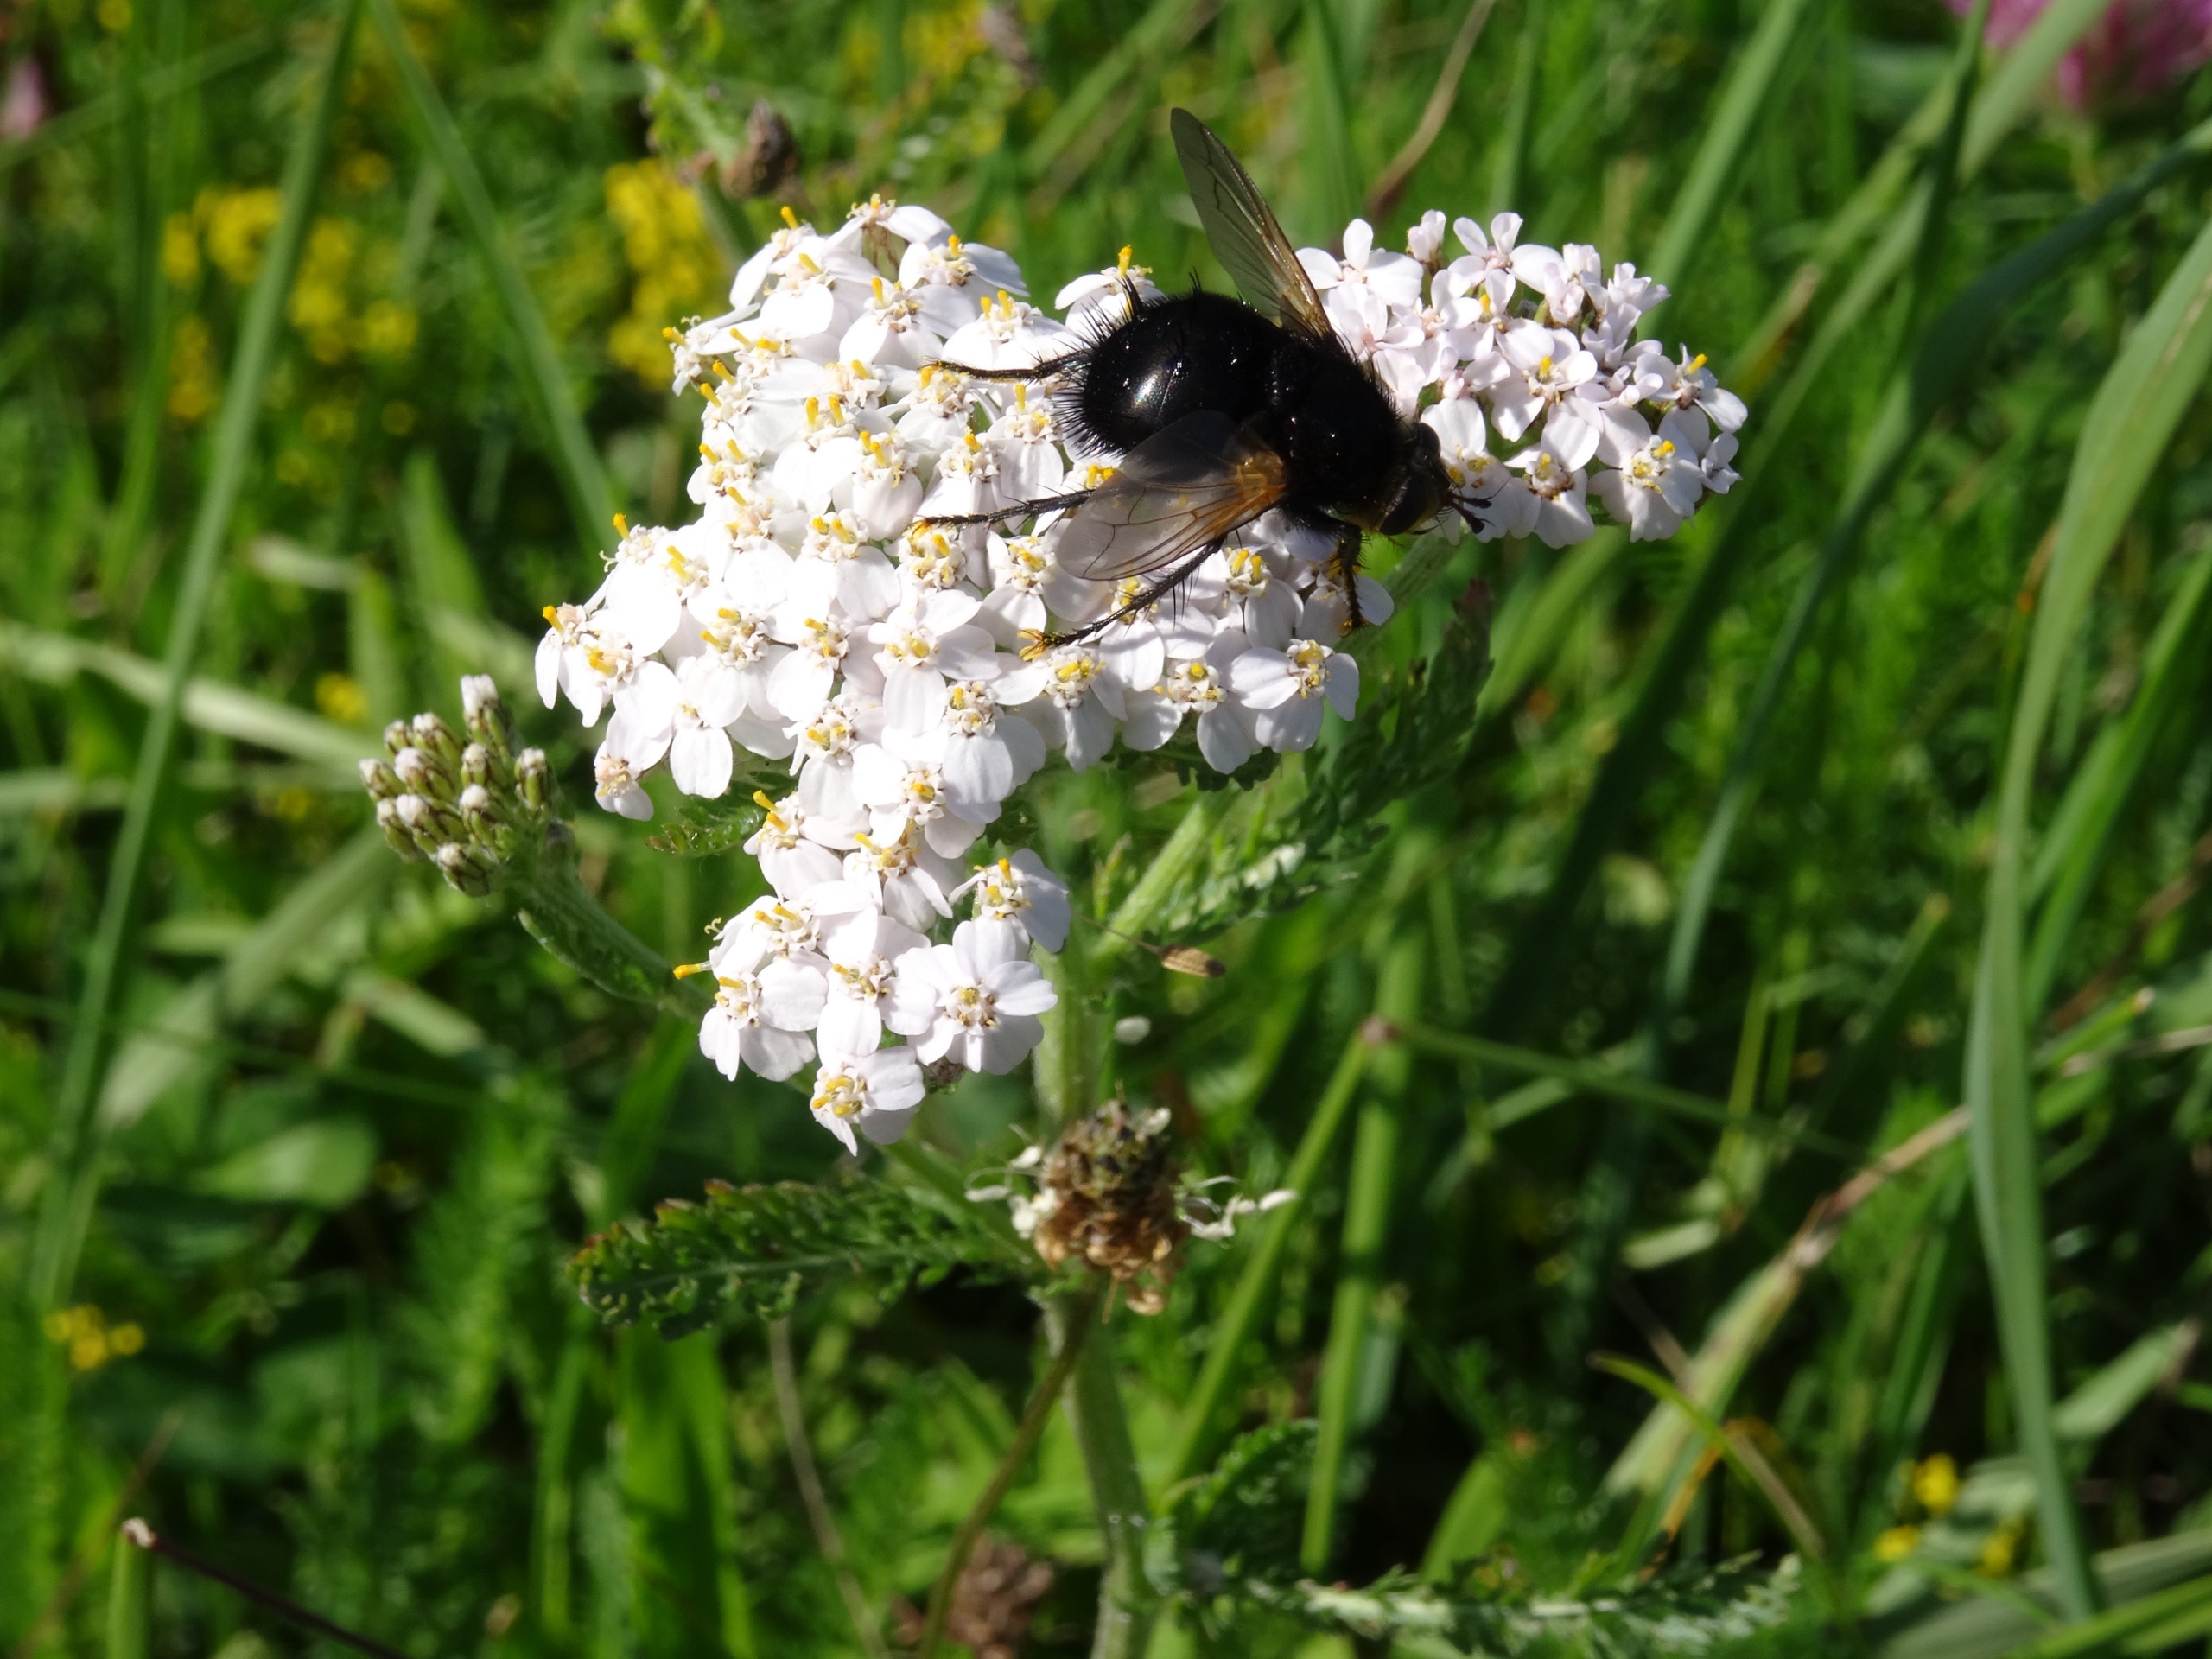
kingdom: Animalia
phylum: Arthropoda
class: Insecta
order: Diptera
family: Tachinidae
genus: Tachina
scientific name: Tachina grossa
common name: Kæmpefluen Harald
